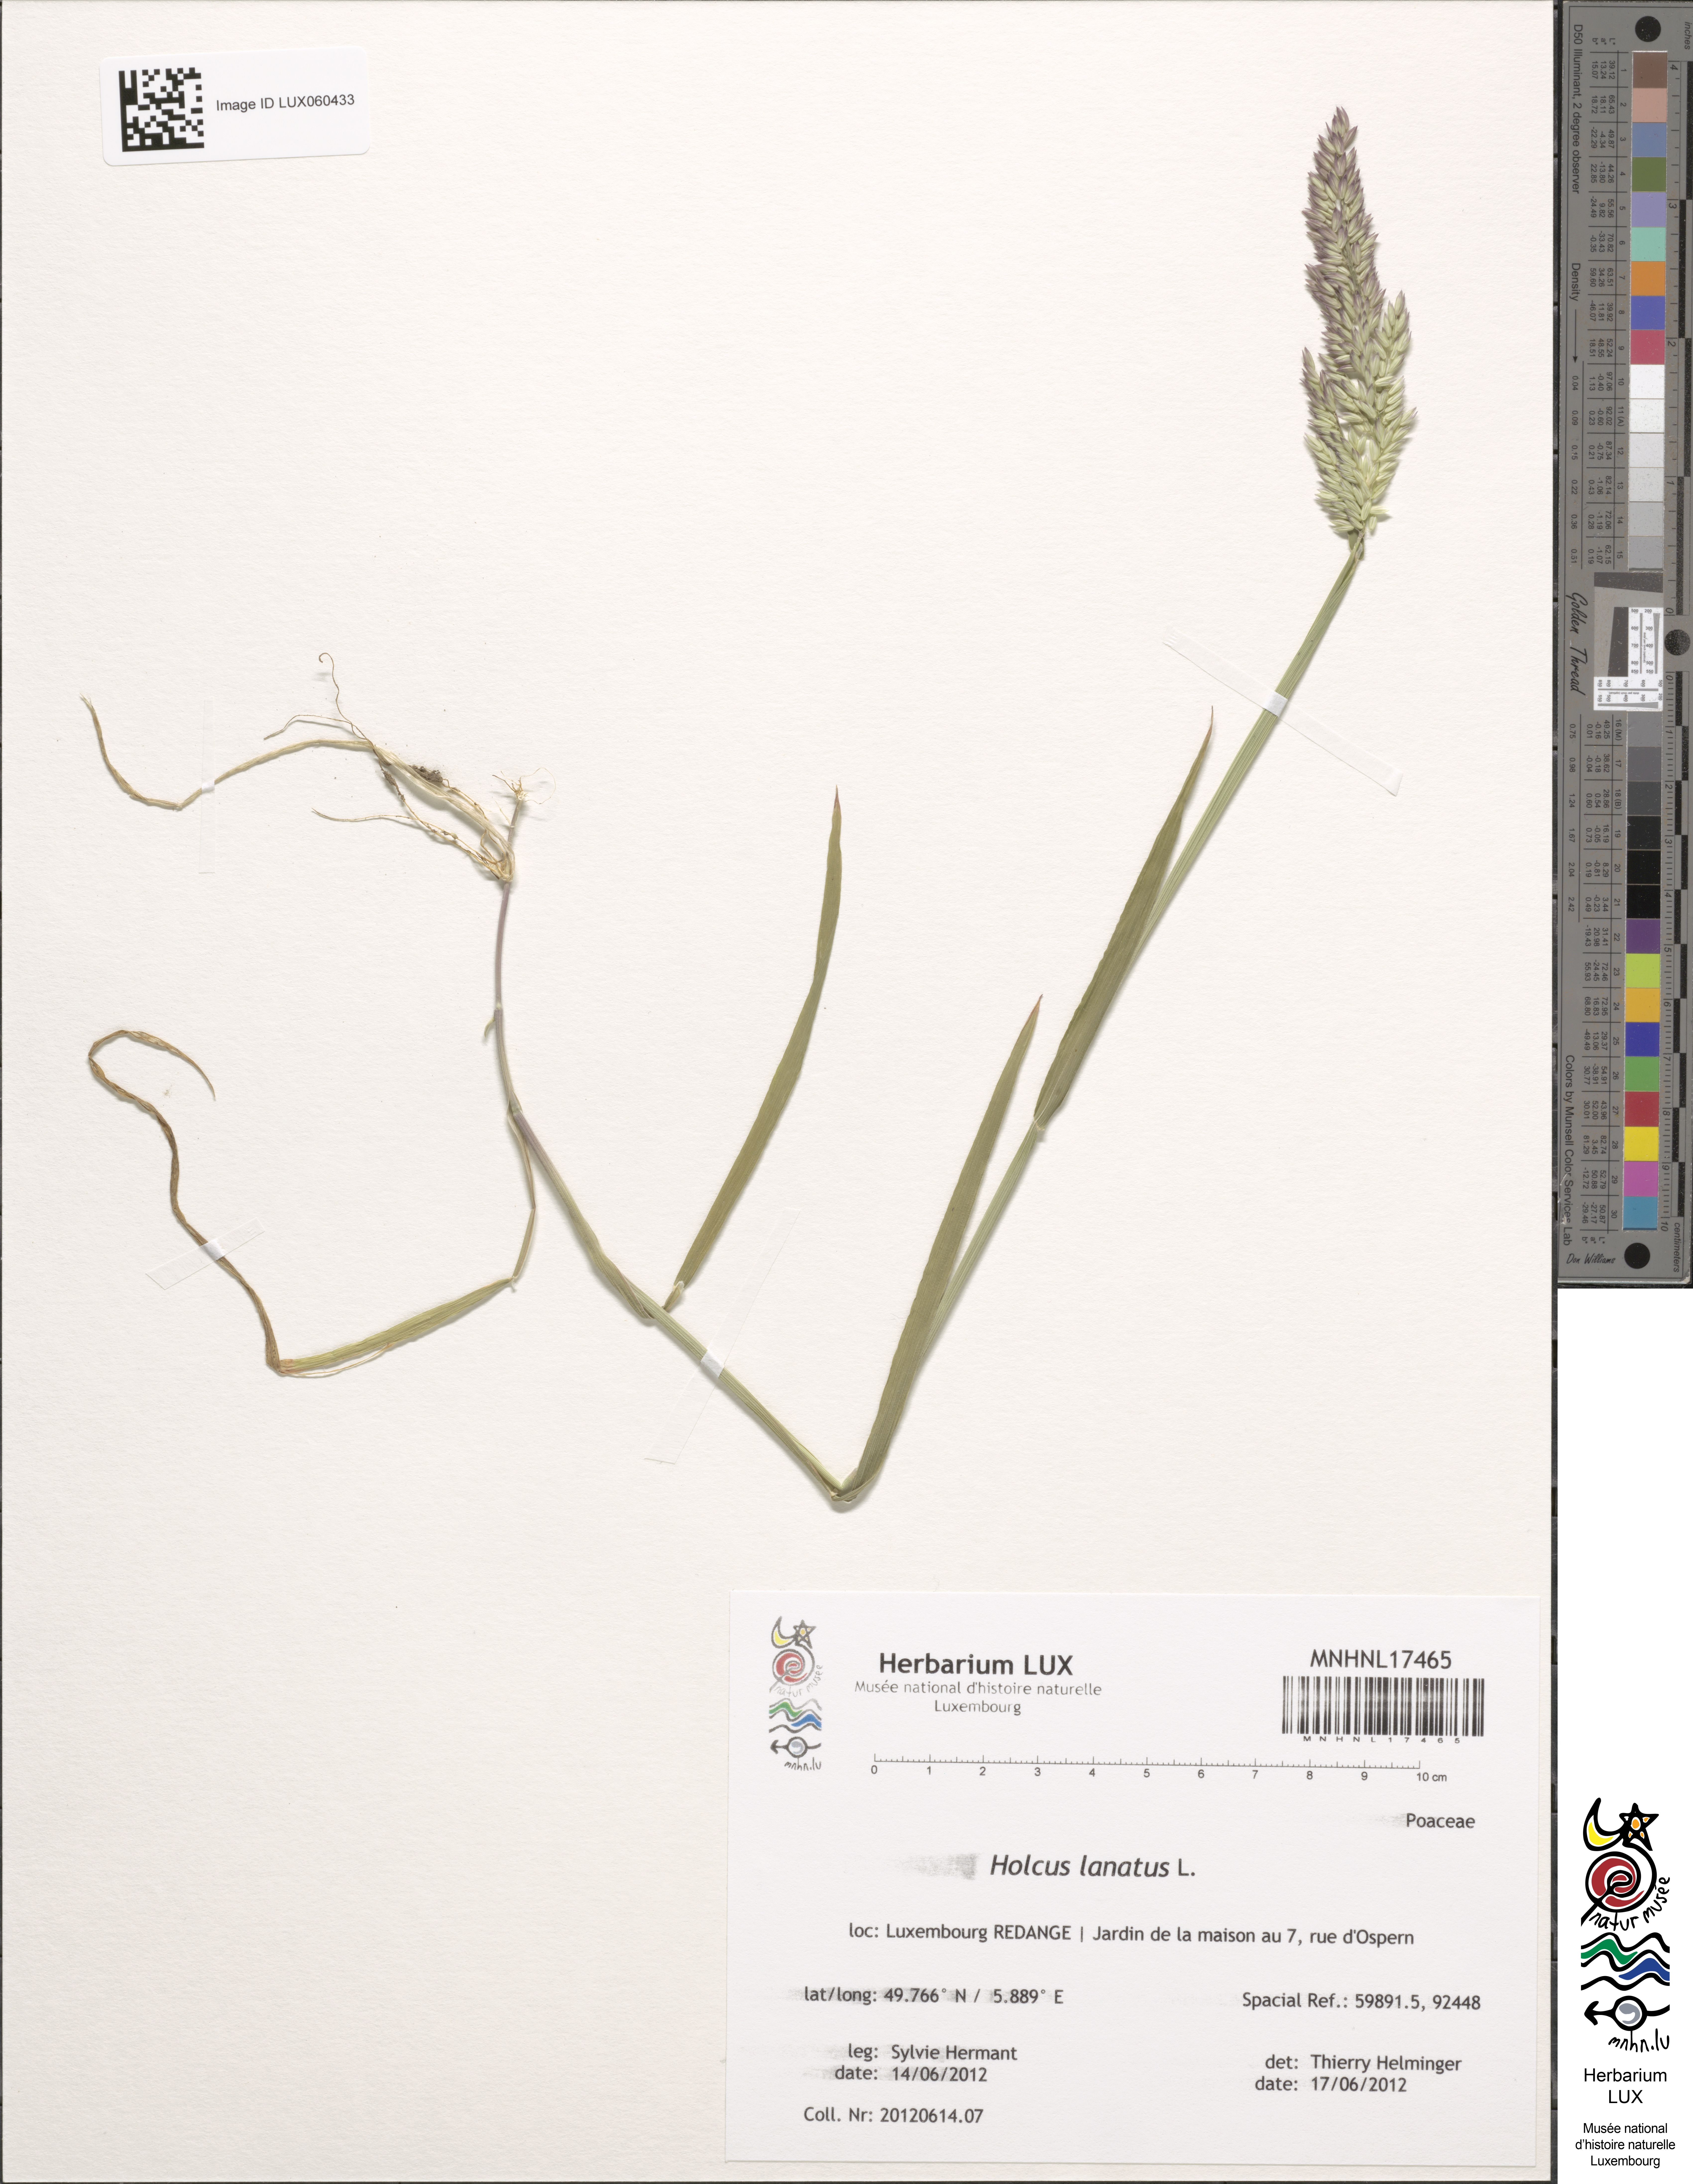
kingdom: Plantae
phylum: Tracheophyta
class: Liliopsida
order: Poales
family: Poaceae
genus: Holcus
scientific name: Holcus lanatus
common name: Yorkshire-fog
